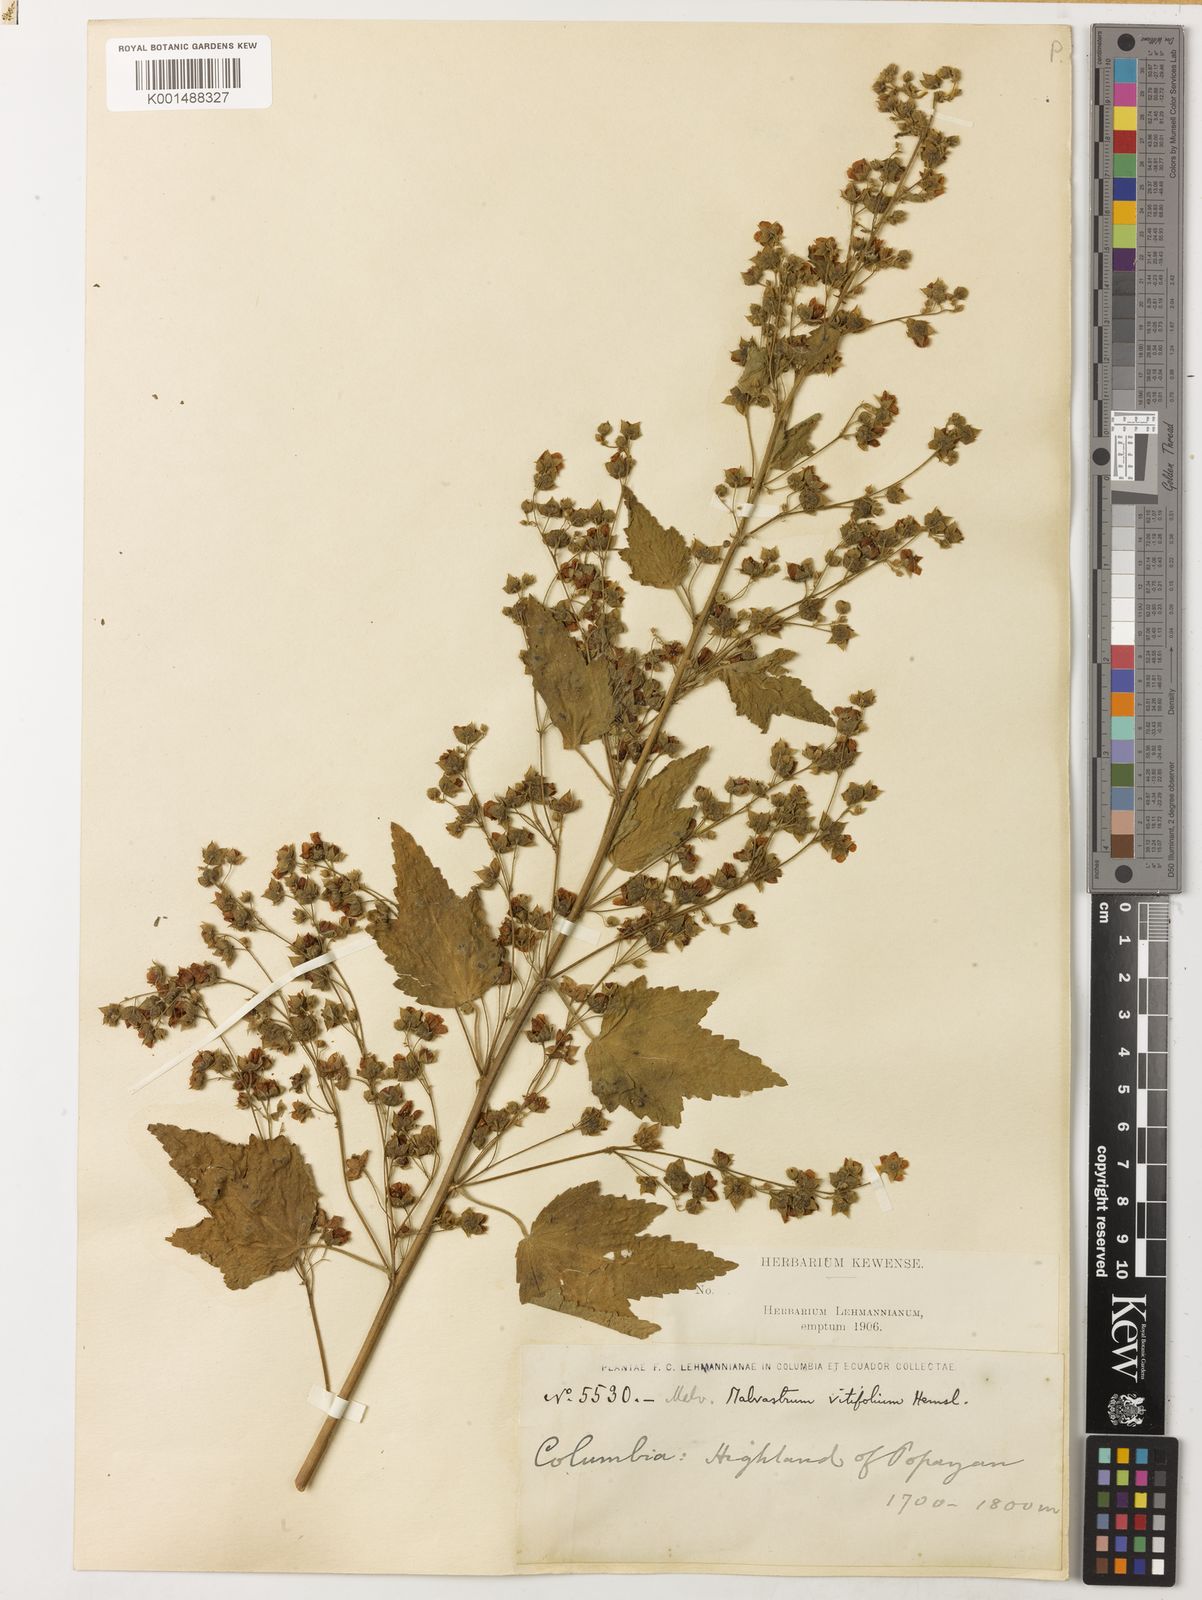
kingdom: Plantae
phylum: Tracheophyta
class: Magnoliopsida
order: Malvales
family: Malvaceae
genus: Kearnemalvastrum
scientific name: Kearnemalvastrum lacteum
